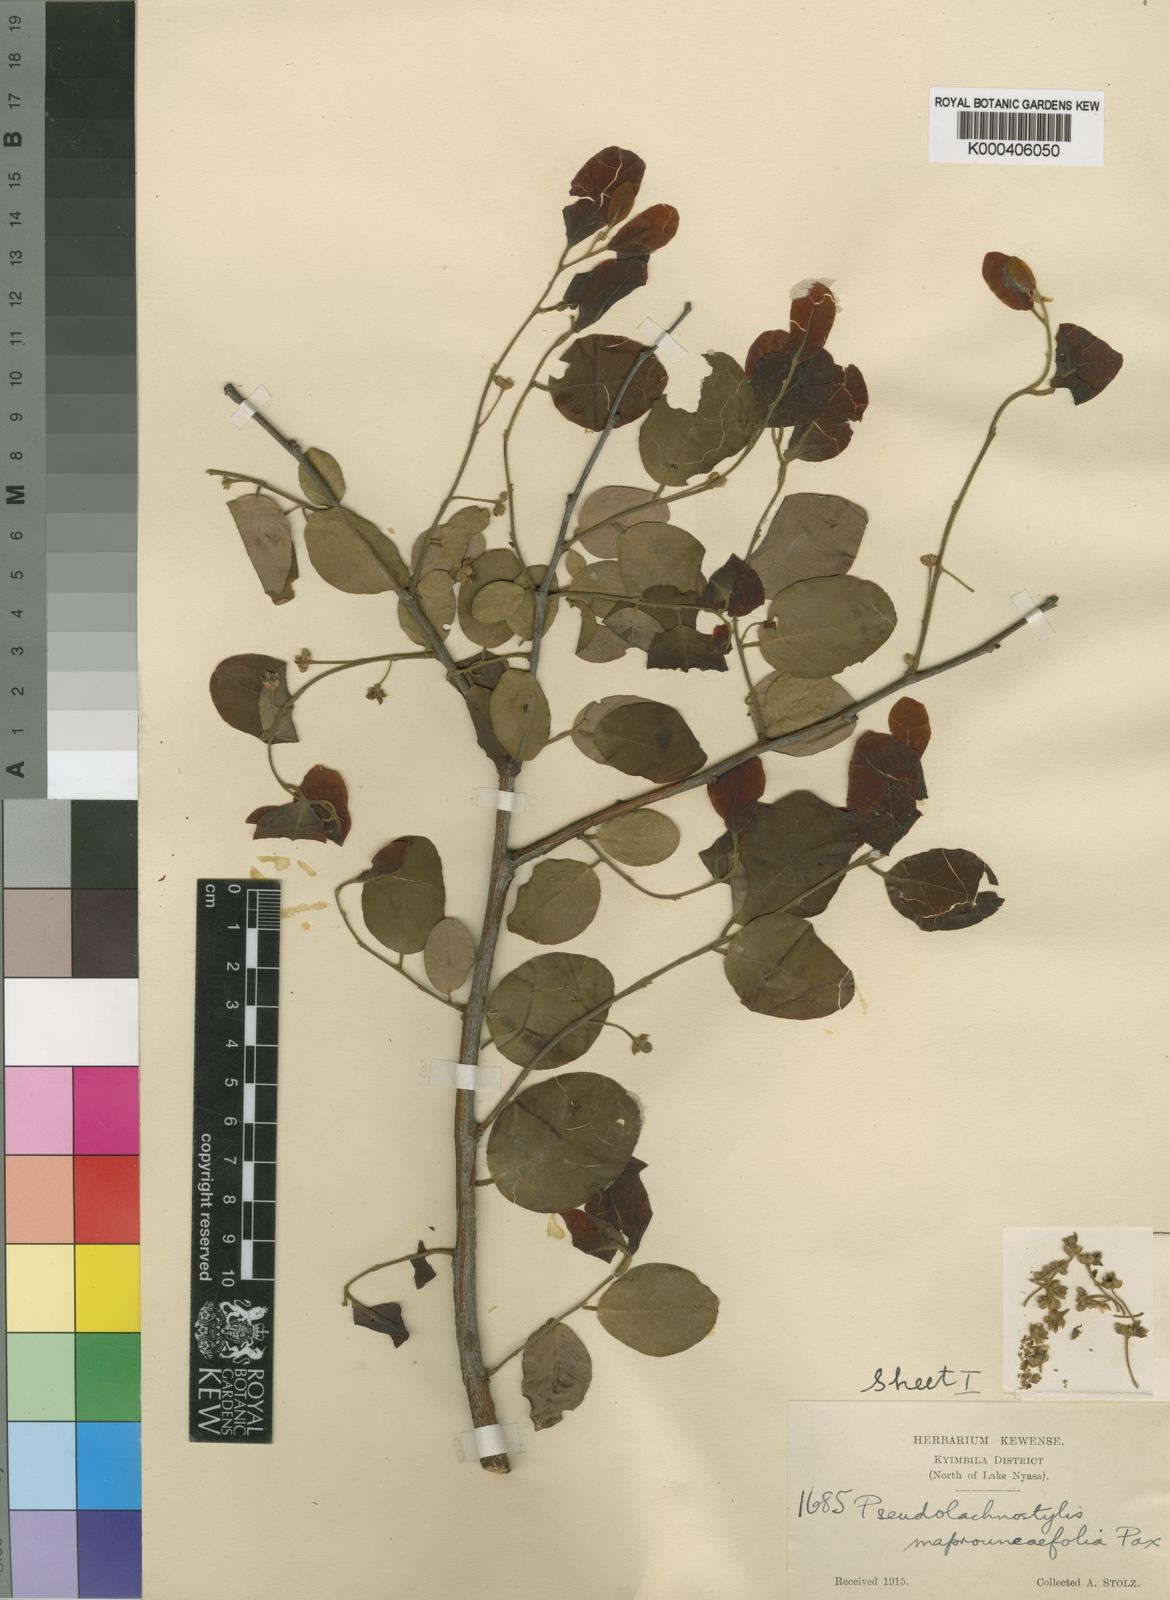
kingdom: Plantae
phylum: Tracheophyta
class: Magnoliopsida
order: Malpighiales
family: Phyllanthaceae
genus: Pseudolachnostylis
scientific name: Pseudolachnostylis maprouneifolia
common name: Kudu berry
